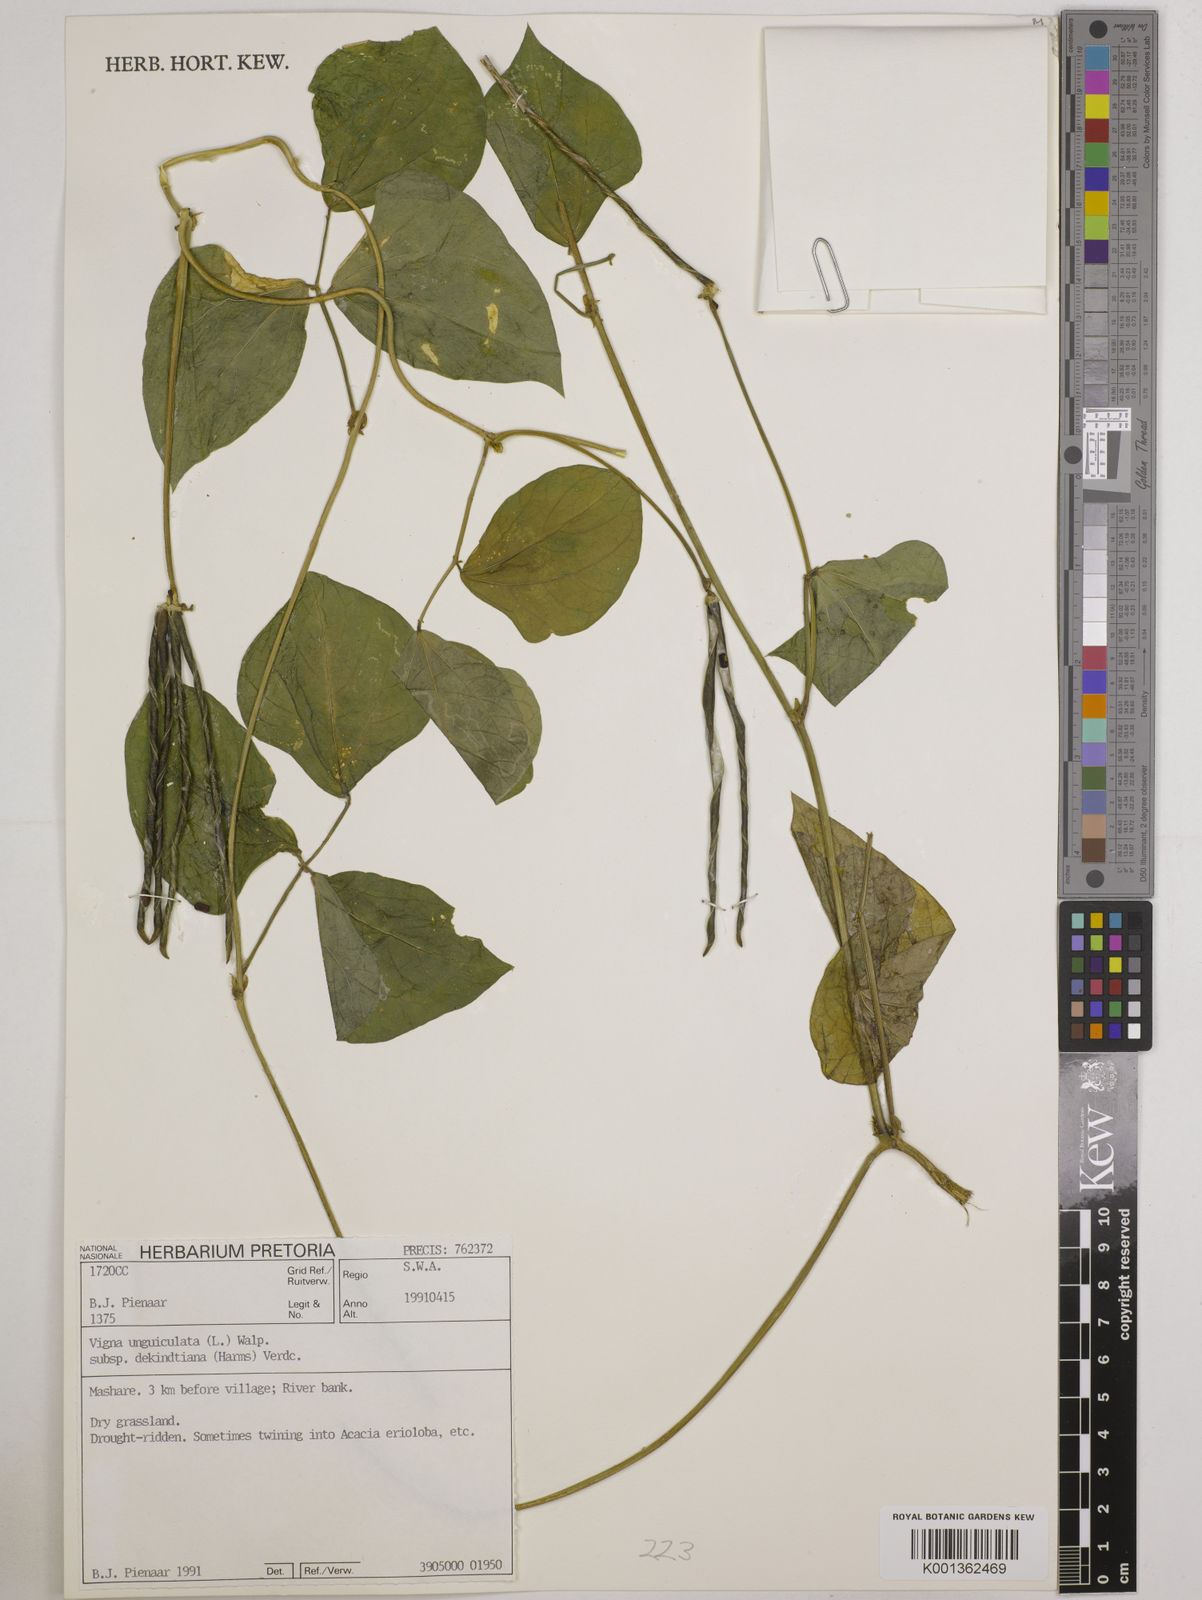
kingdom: Plantae
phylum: Tracheophyta
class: Magnoliopsida
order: Fabales
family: Fabaceae
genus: Vigna
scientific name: Vigna
